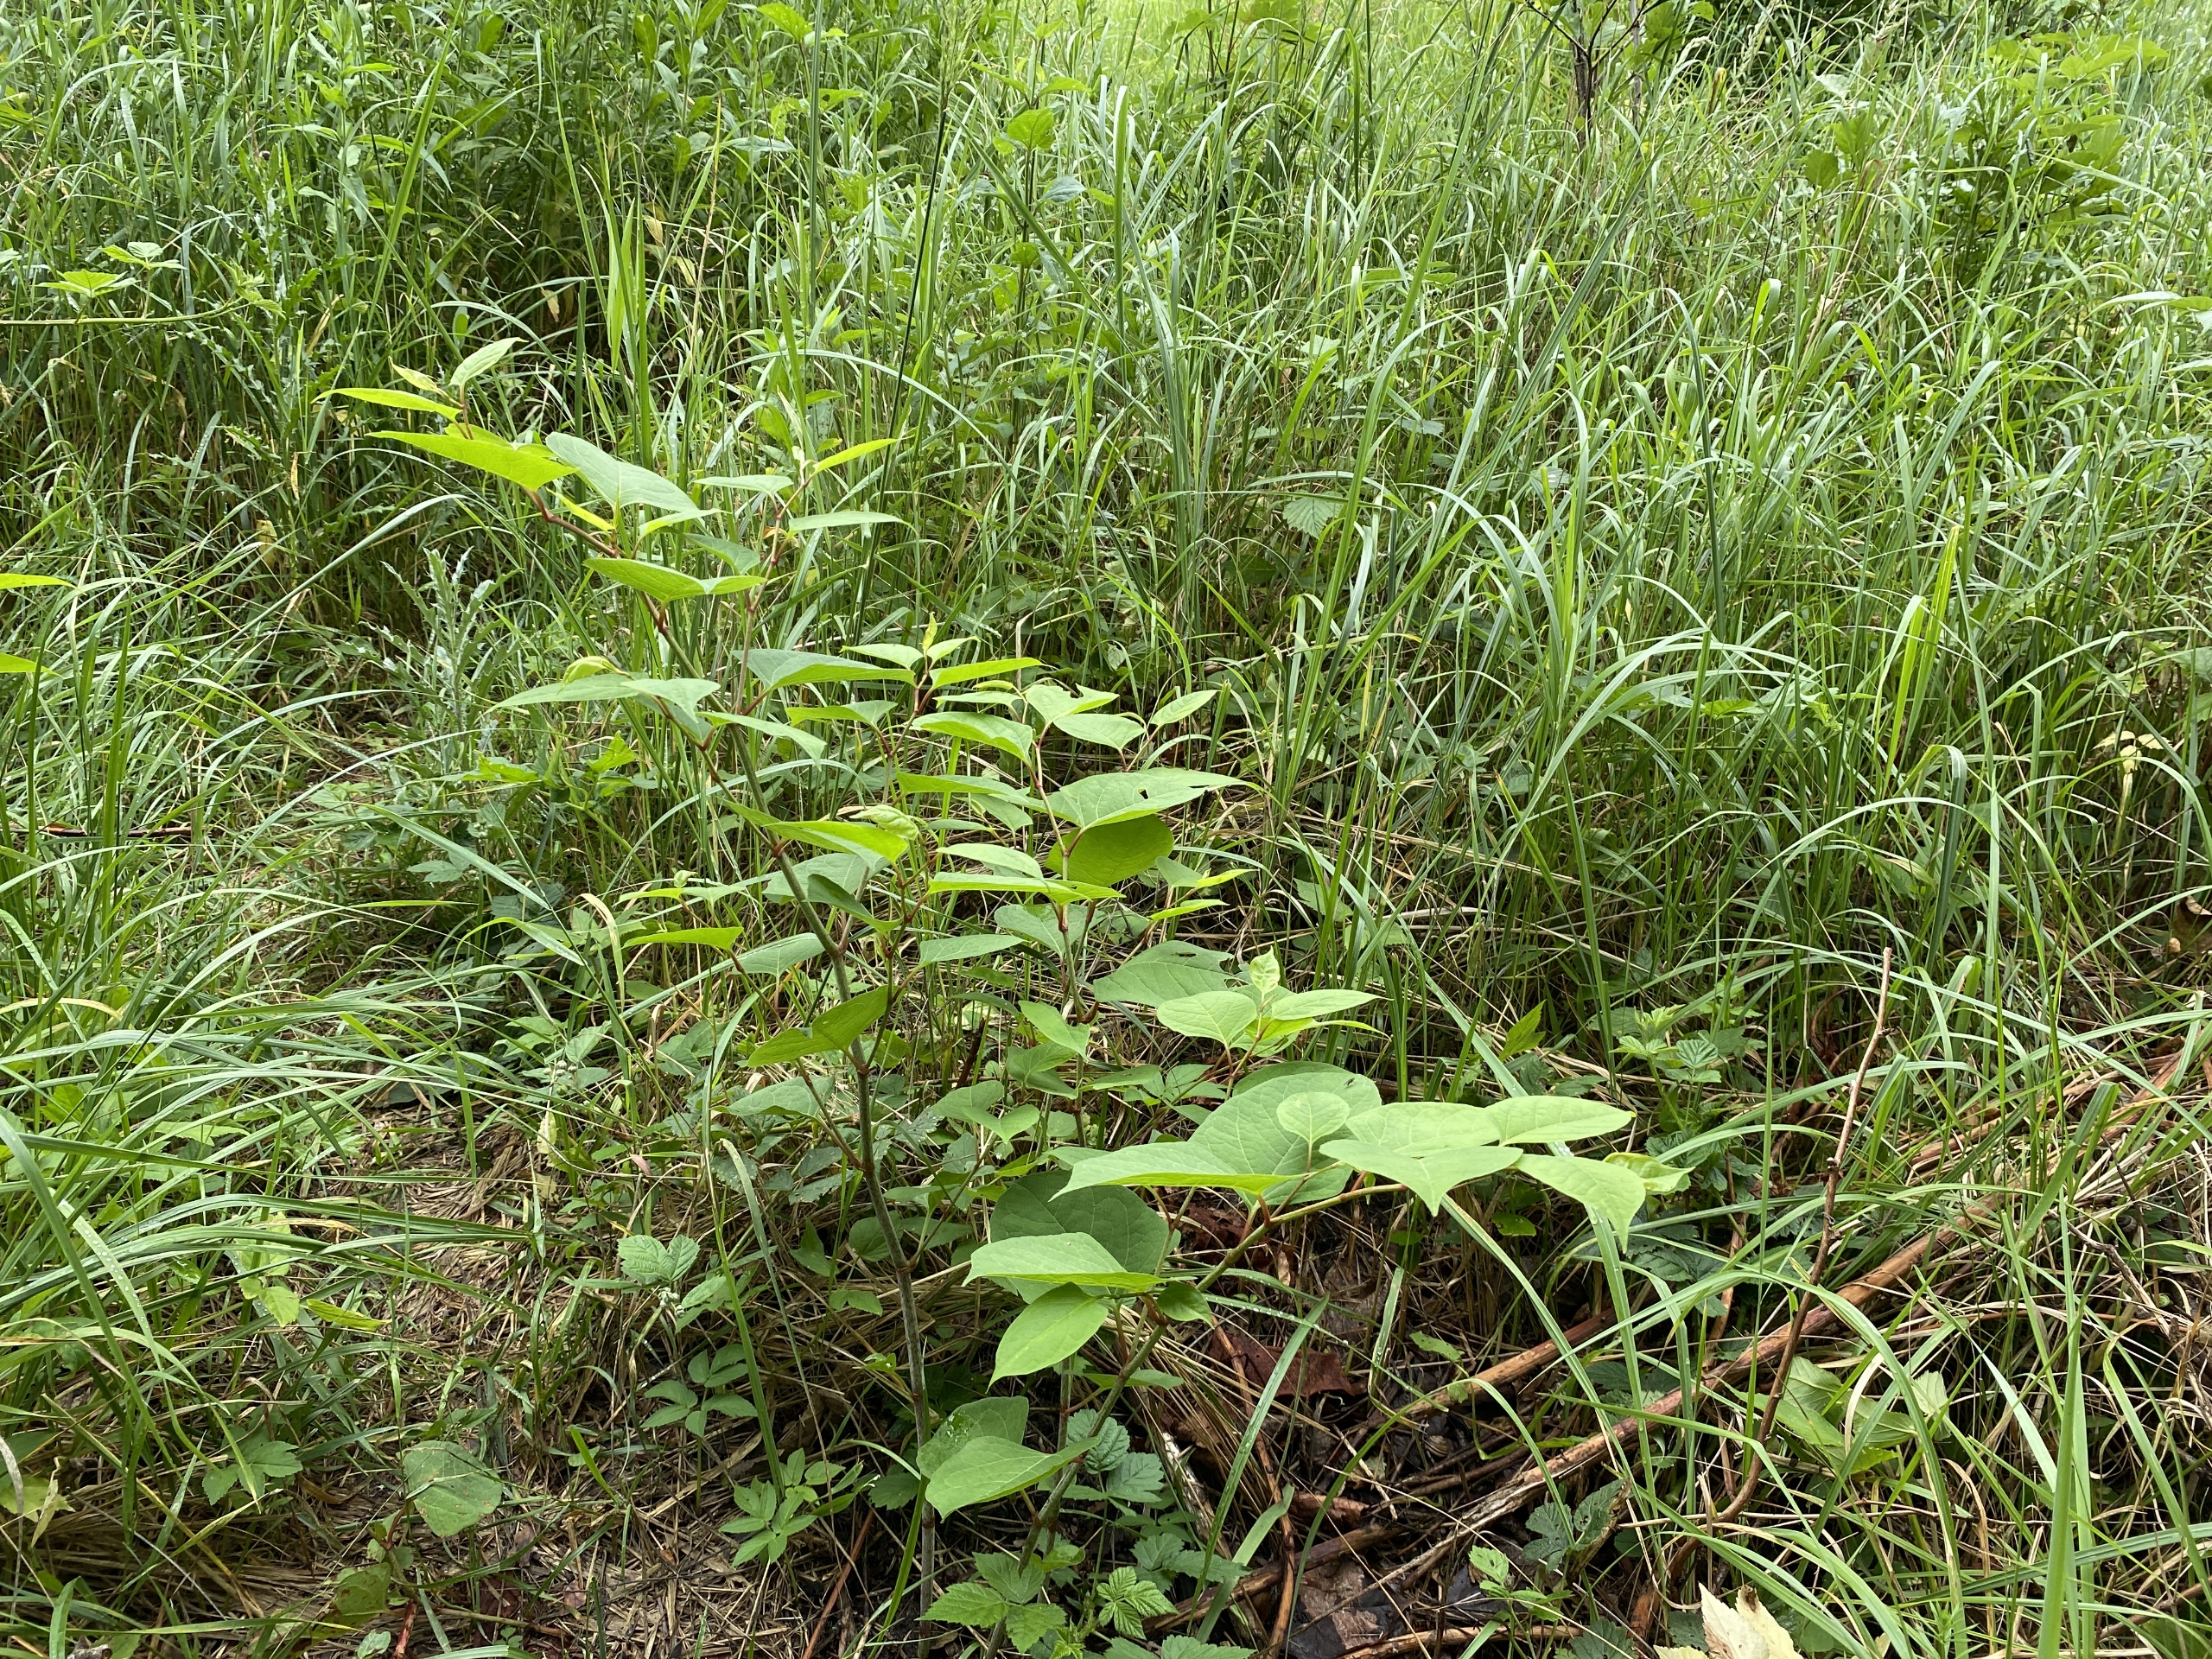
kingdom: Plantae
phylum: Tracheophyta
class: Magnoliopsida
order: Caryophyllales
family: Polygonaceae
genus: Reynoutria
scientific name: Reynoutria japonica
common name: Japan-pileurt
